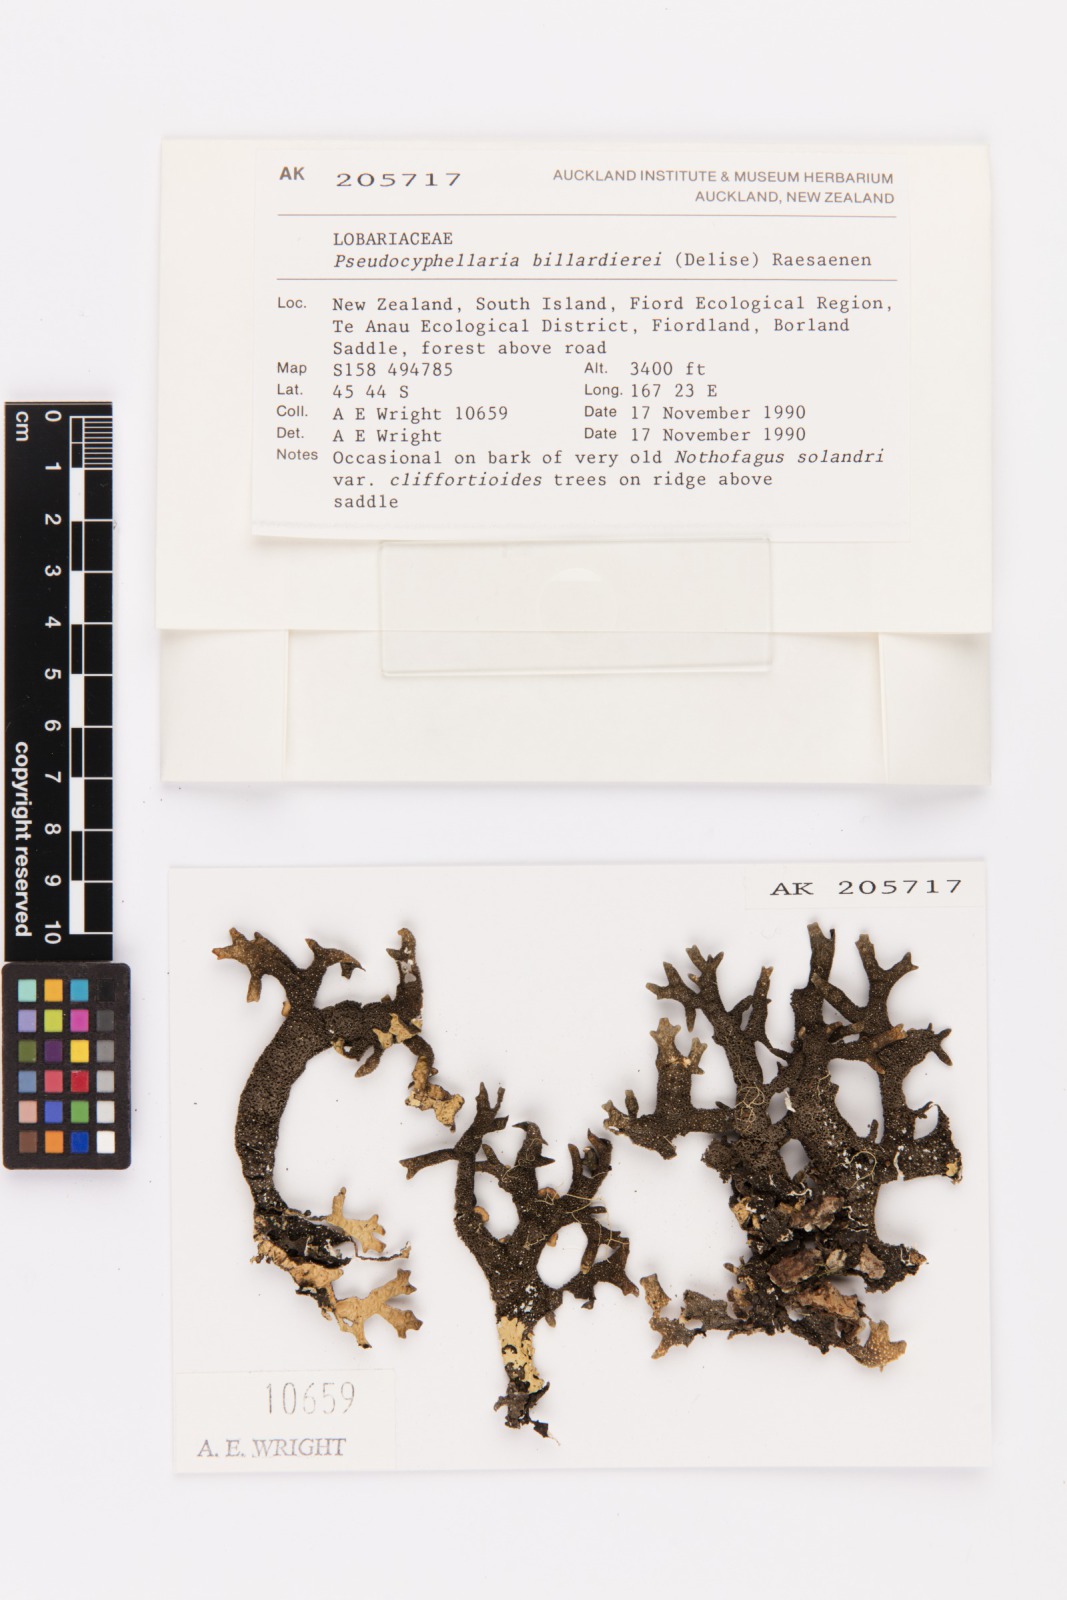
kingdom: Fungi
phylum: Ascomycota
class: Lecanoromycetes
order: Peltigerales
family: Lobariaceae
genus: Pseudocyphellaria
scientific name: Pseudocyphellaria billardierei
